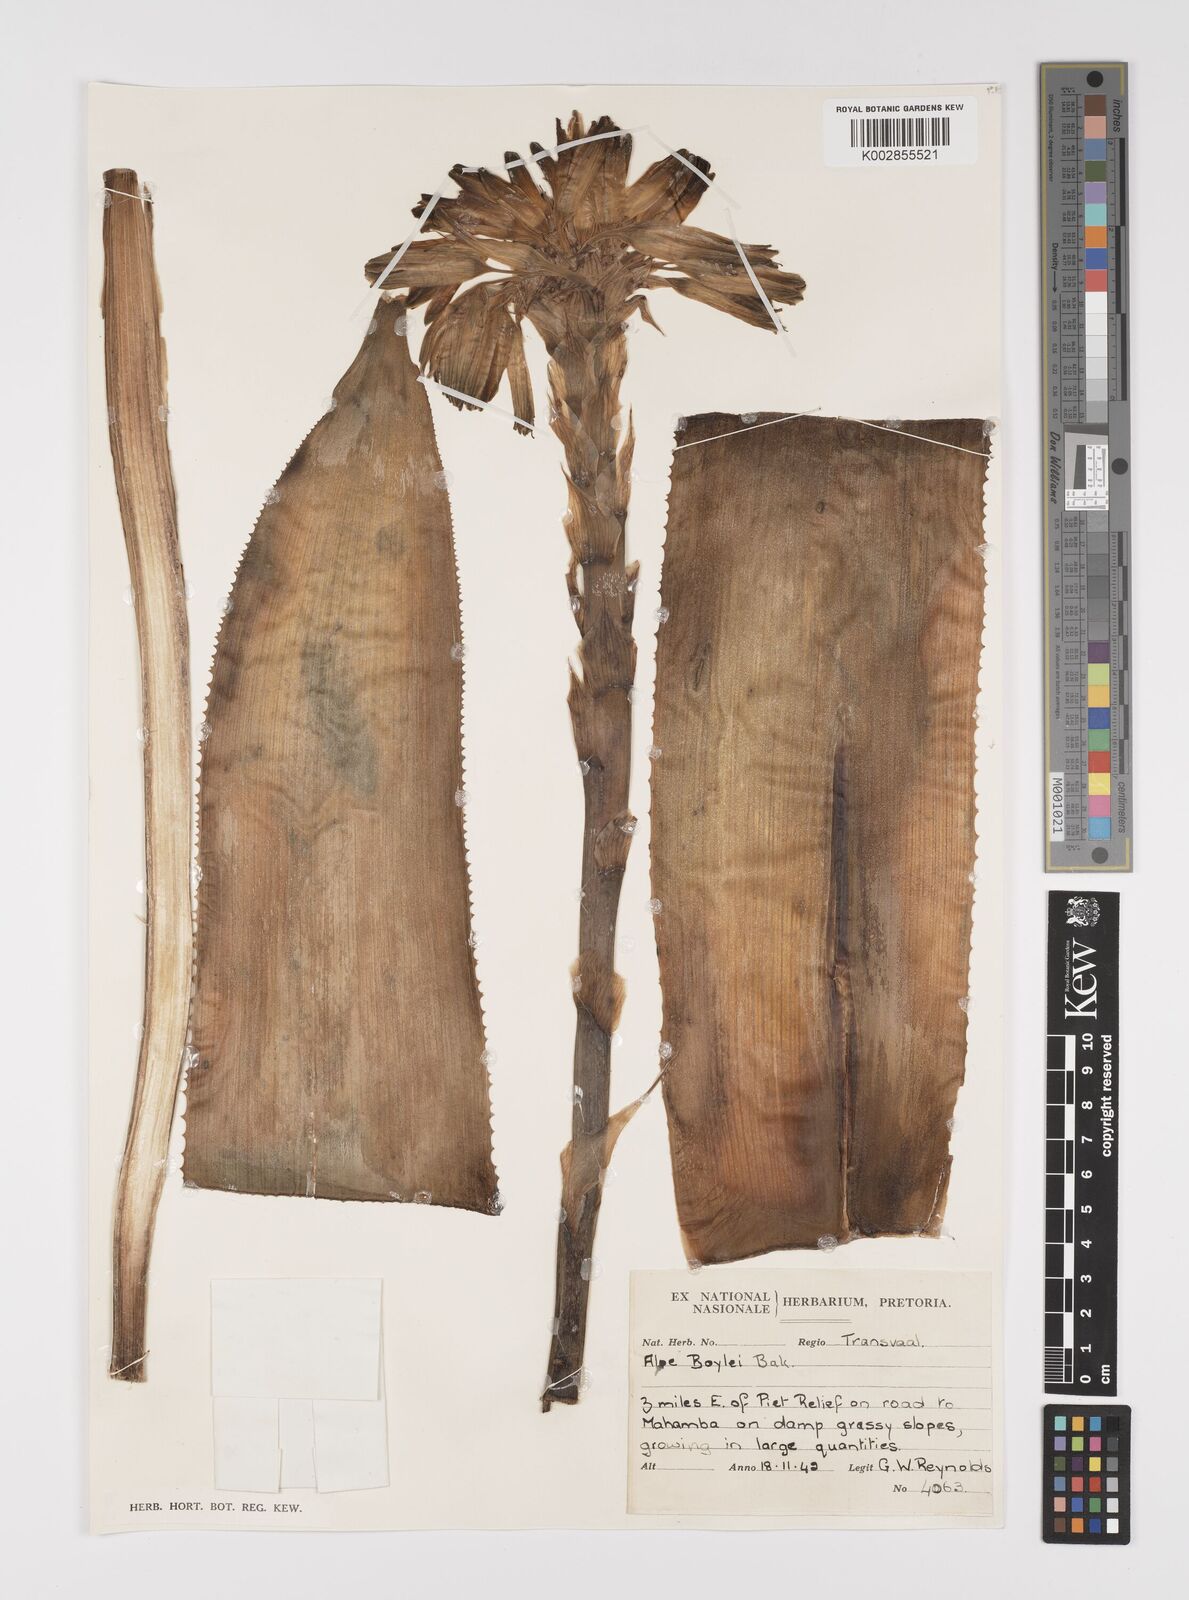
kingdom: Plantae
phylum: Tracheophyta
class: Liliopsida
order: Asparagales
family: Asphodelaceae
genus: Aloe
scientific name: Aloe boylei
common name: Broad-leaved grass aloe
